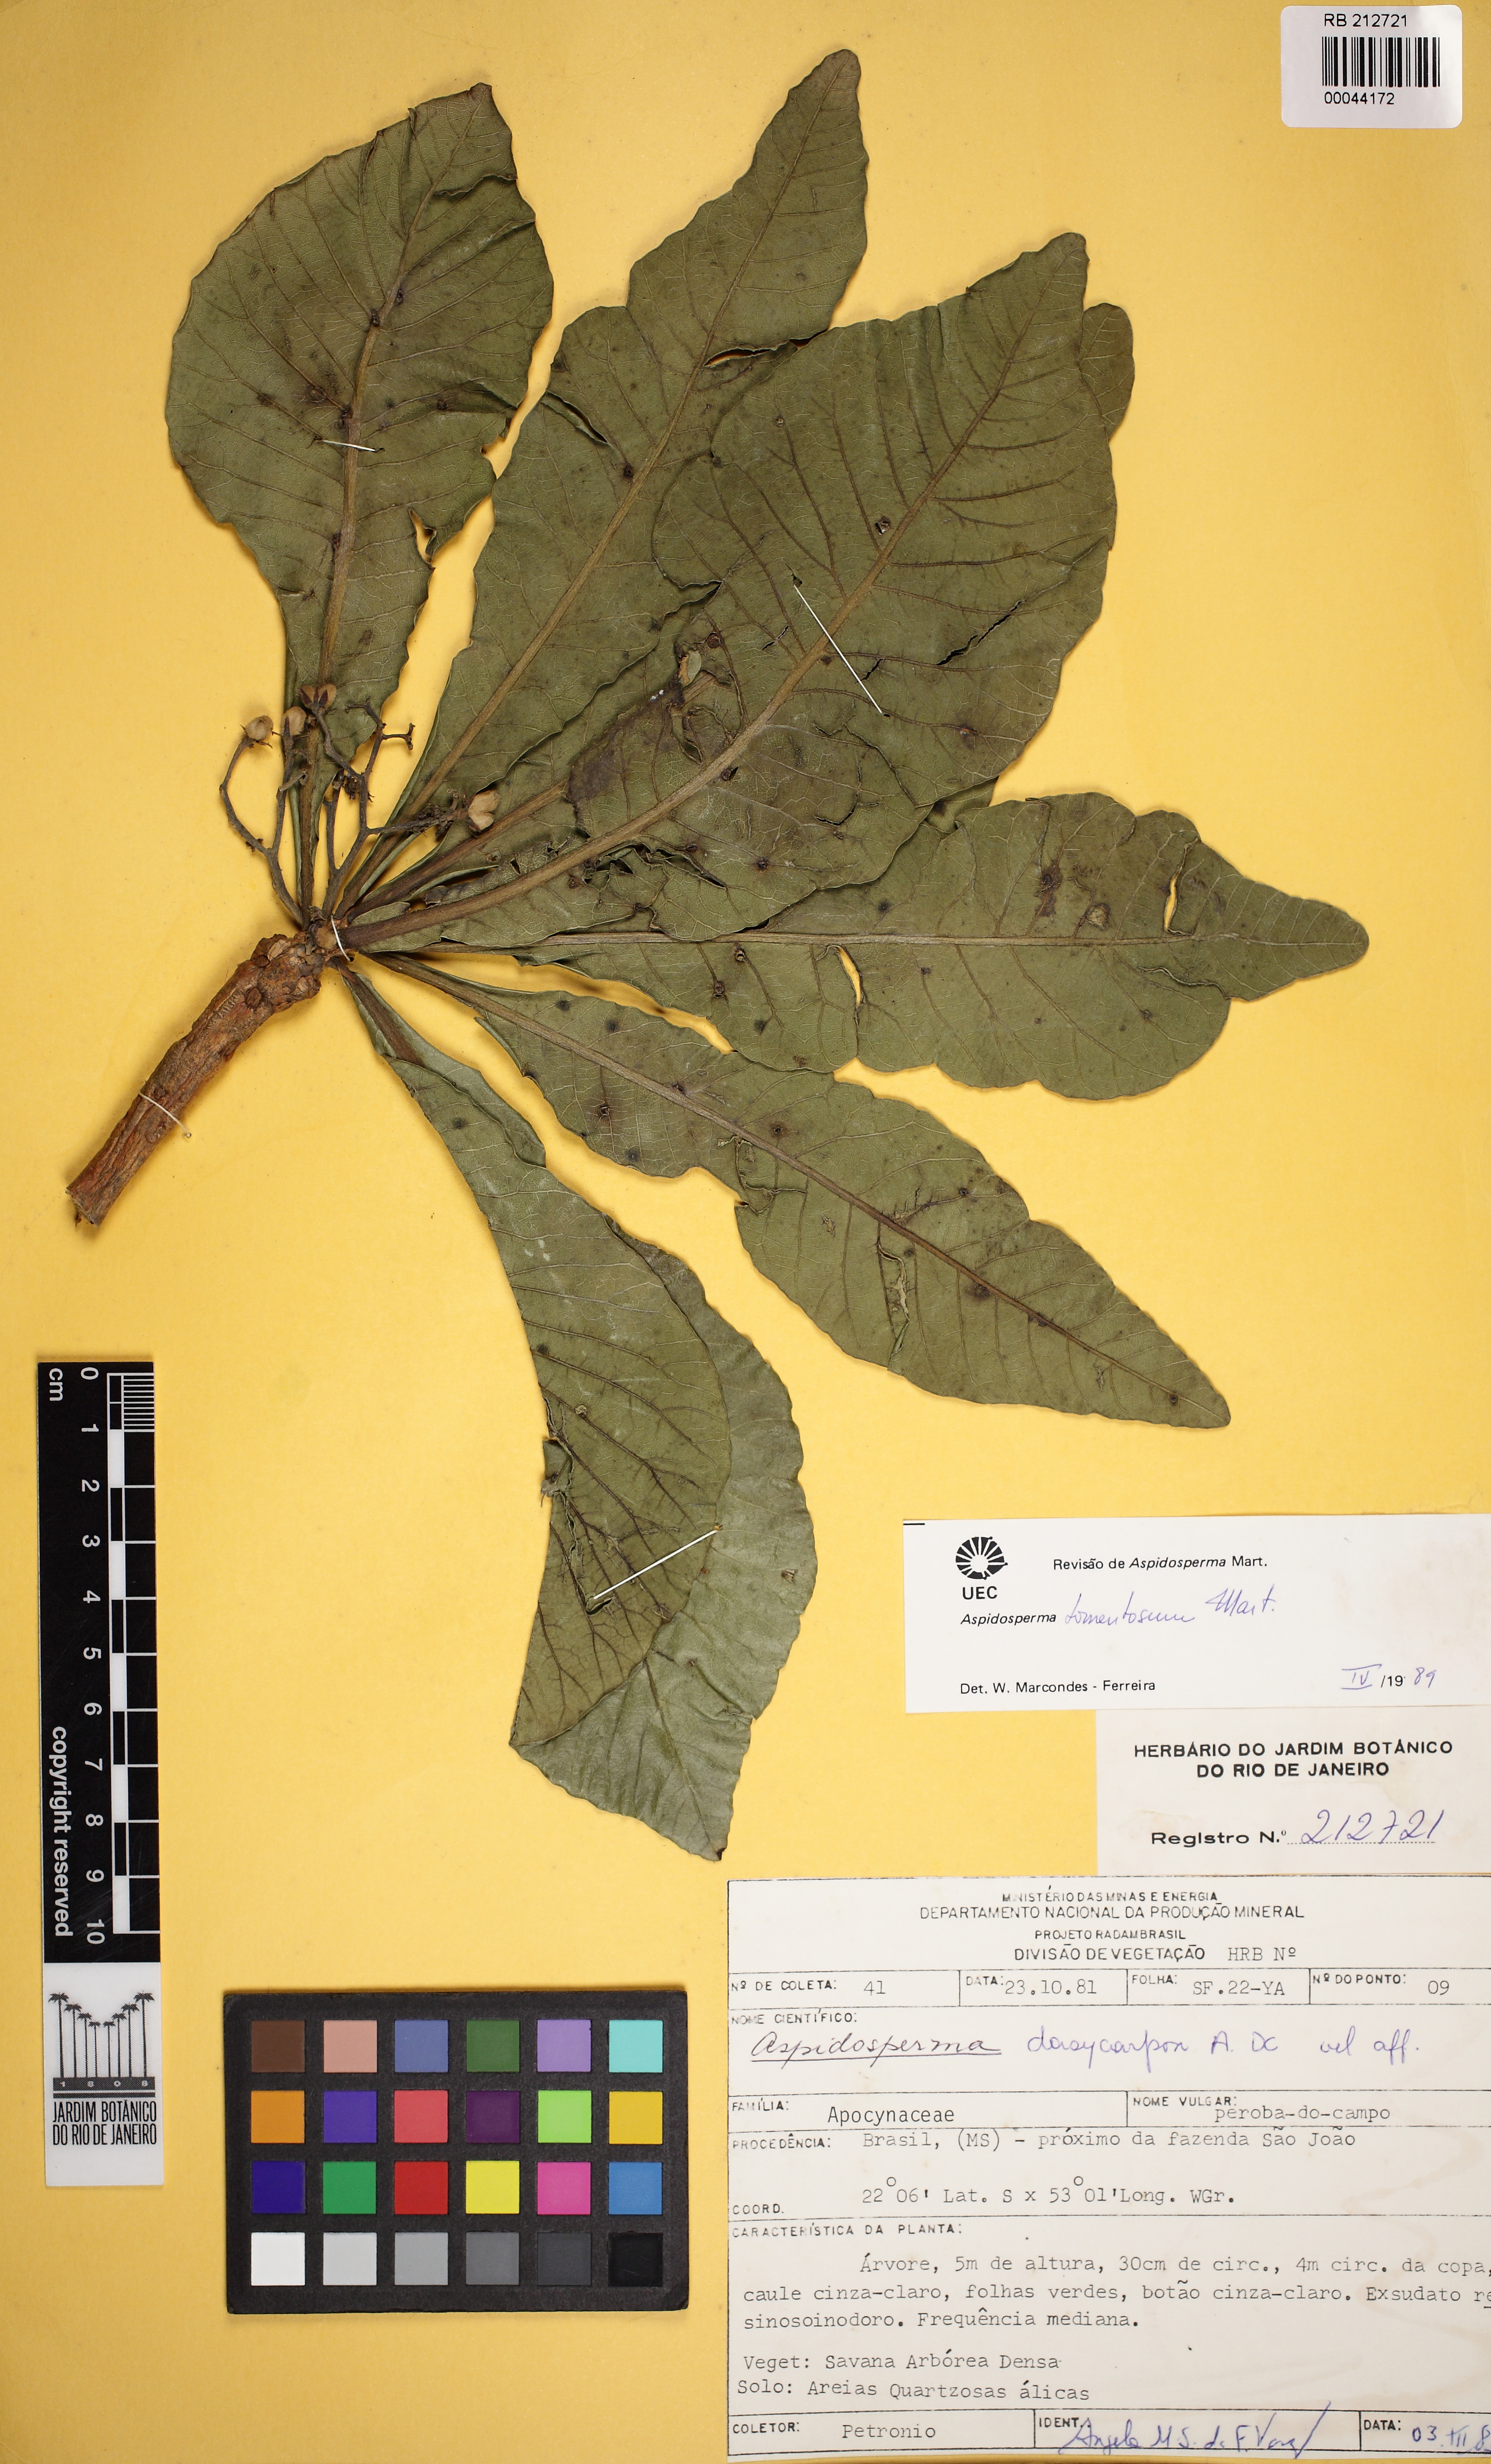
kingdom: Plantae
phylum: Tracheophyta
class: Magnoliopsida
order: Gentianales
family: Apocynaceae
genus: Aspidosperma
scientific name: Aspidosperma tomentosum
